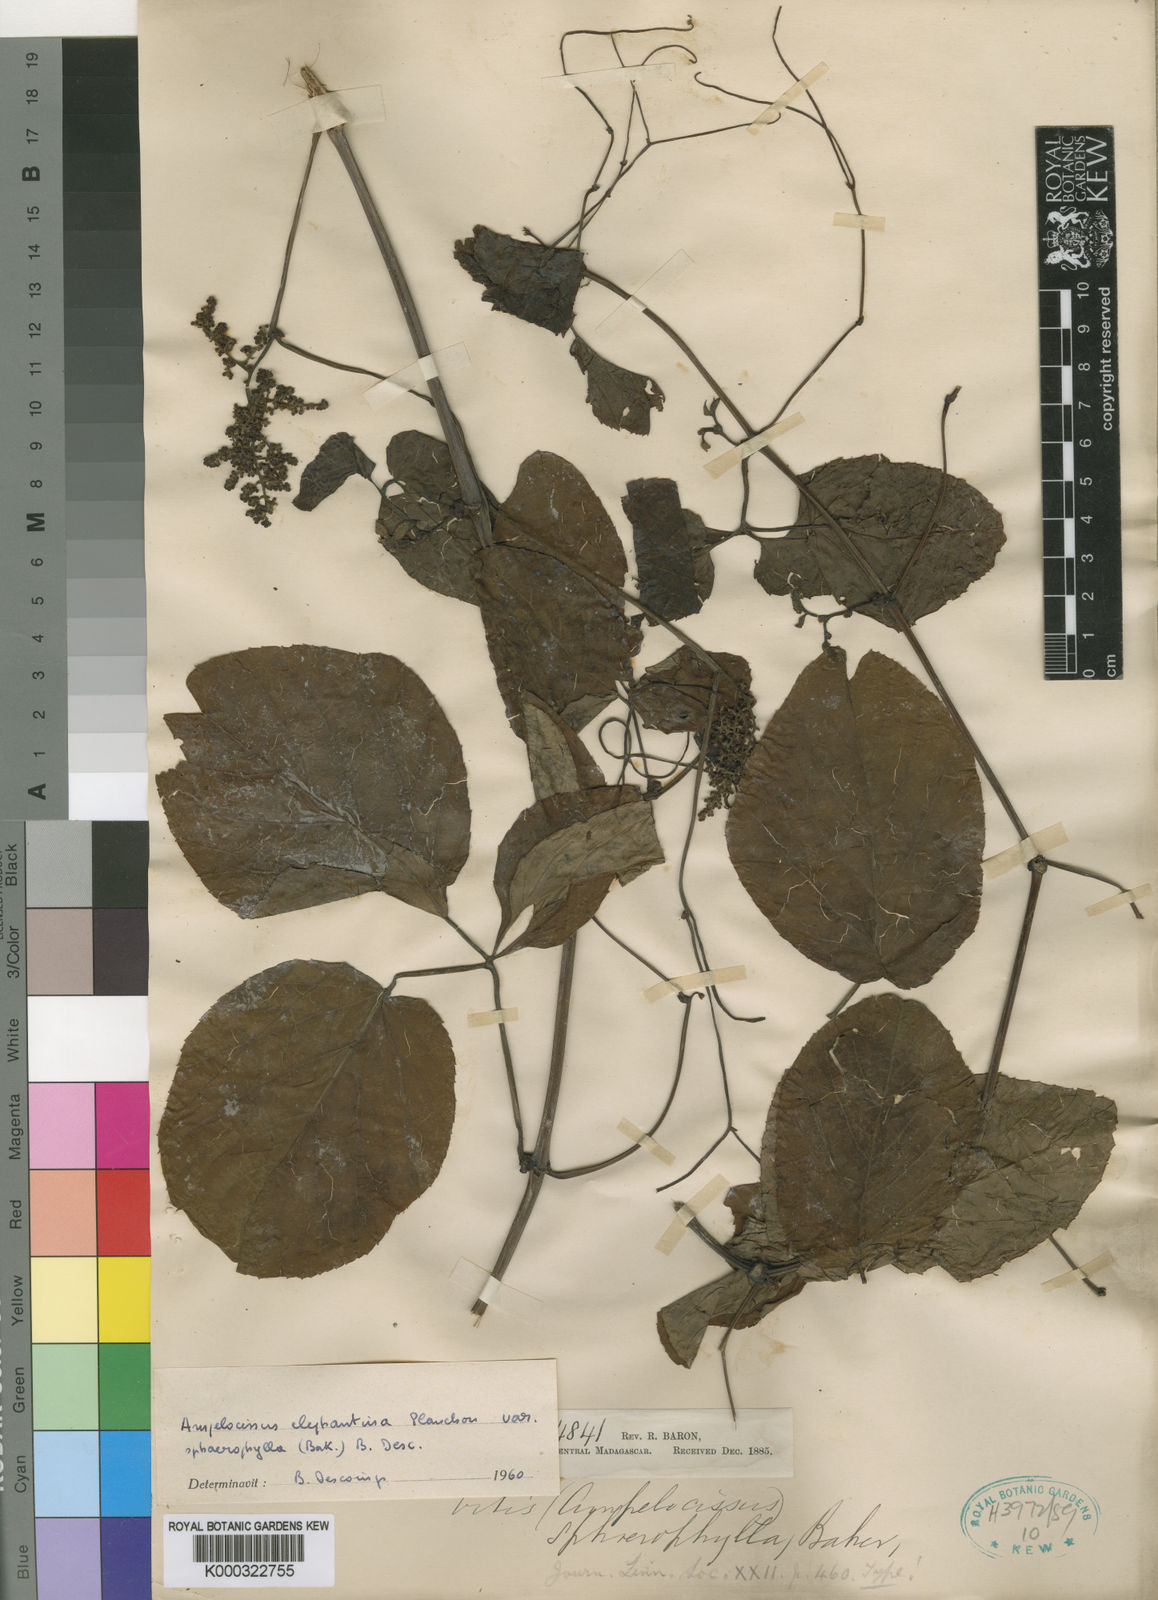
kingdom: Plantae
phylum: Tracheophyta
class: Magnoliopsida
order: Vitales
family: Vitaceae
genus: Ampelocissus
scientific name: Ampelocissus elephantina
